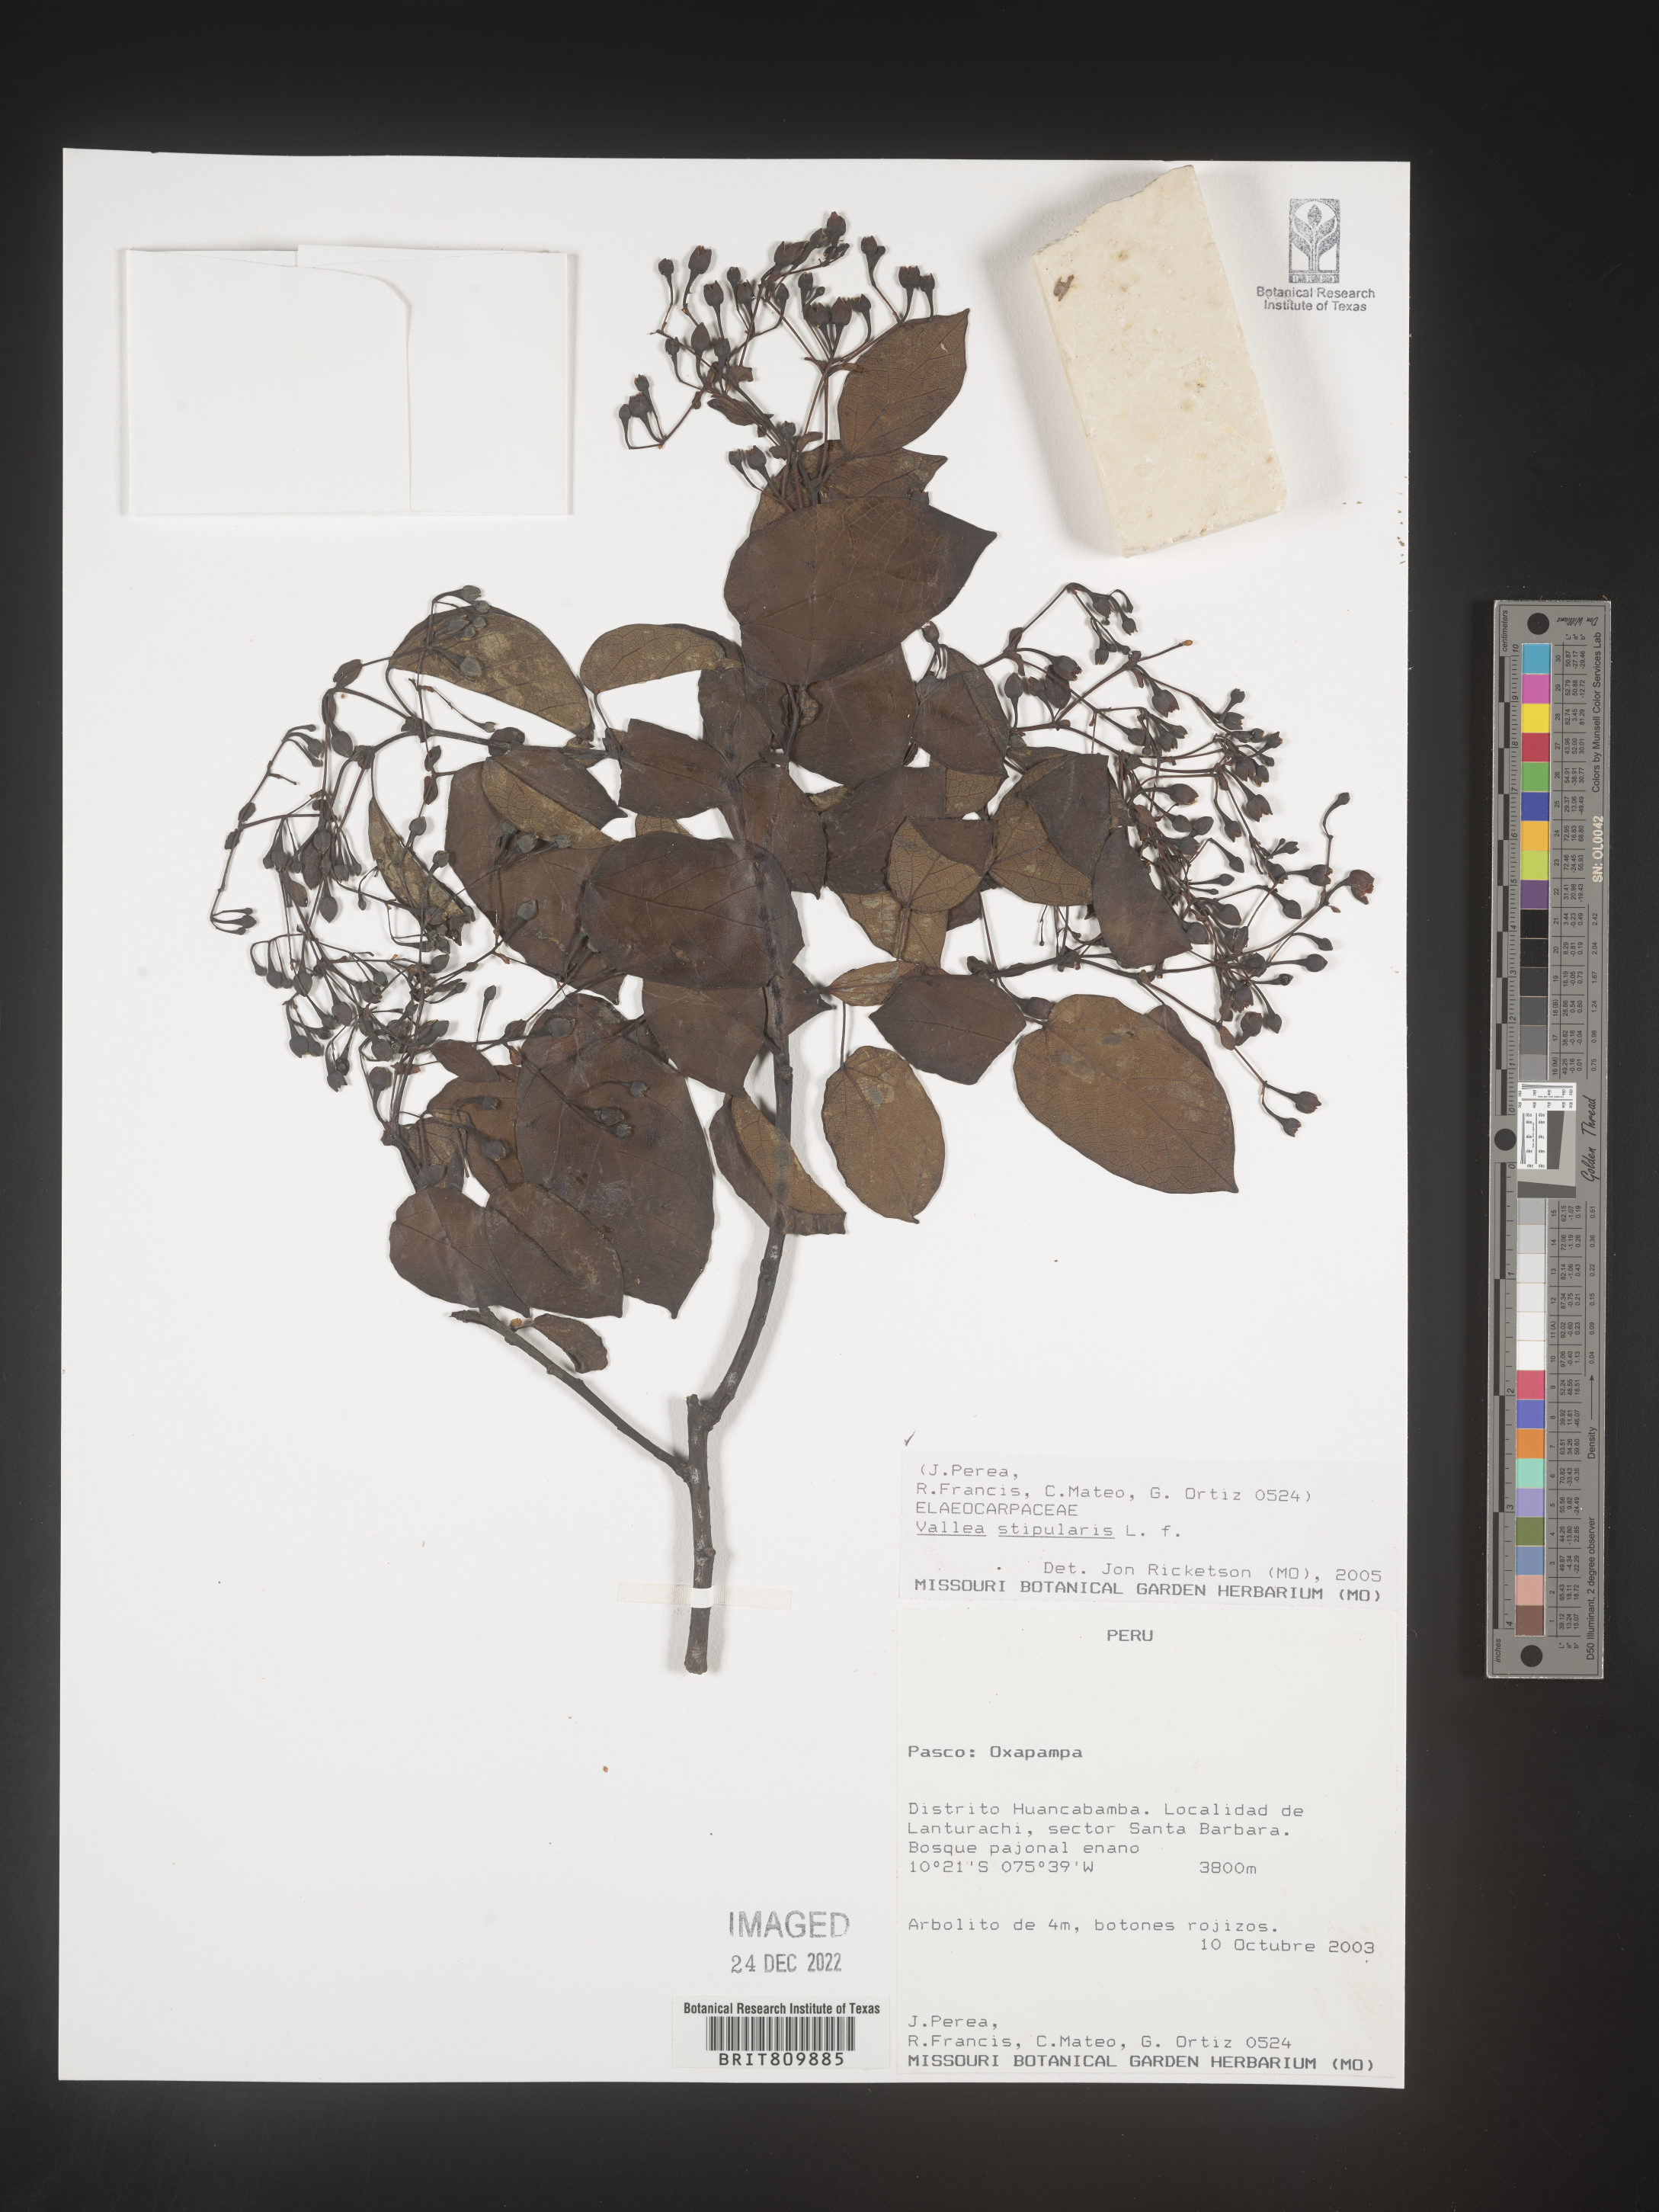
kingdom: Plantae
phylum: Tracheophyta
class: Magnoliopsida
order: Oxalidales
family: Elaeocarpaceae
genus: Vallea
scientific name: Vallea
